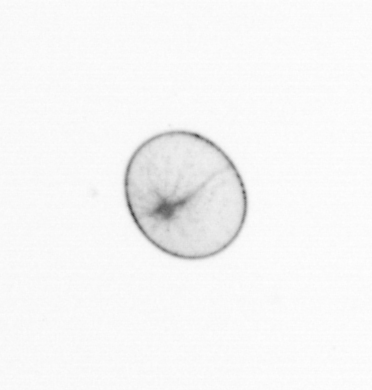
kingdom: Chromista
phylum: Myzozoa
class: Dinophyceae
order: Noctilucales
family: Noctilucaceae
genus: Noctiluca
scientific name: Noctiluca scintillans
